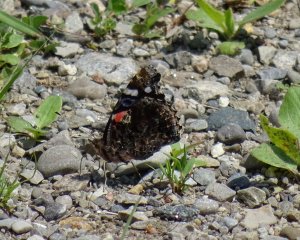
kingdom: Animalia
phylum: Arthropoda
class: Insecta
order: Lepidoptera
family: Nymphalidae
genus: Vanessa
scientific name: Vanessa atalanta
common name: Red Admiral
